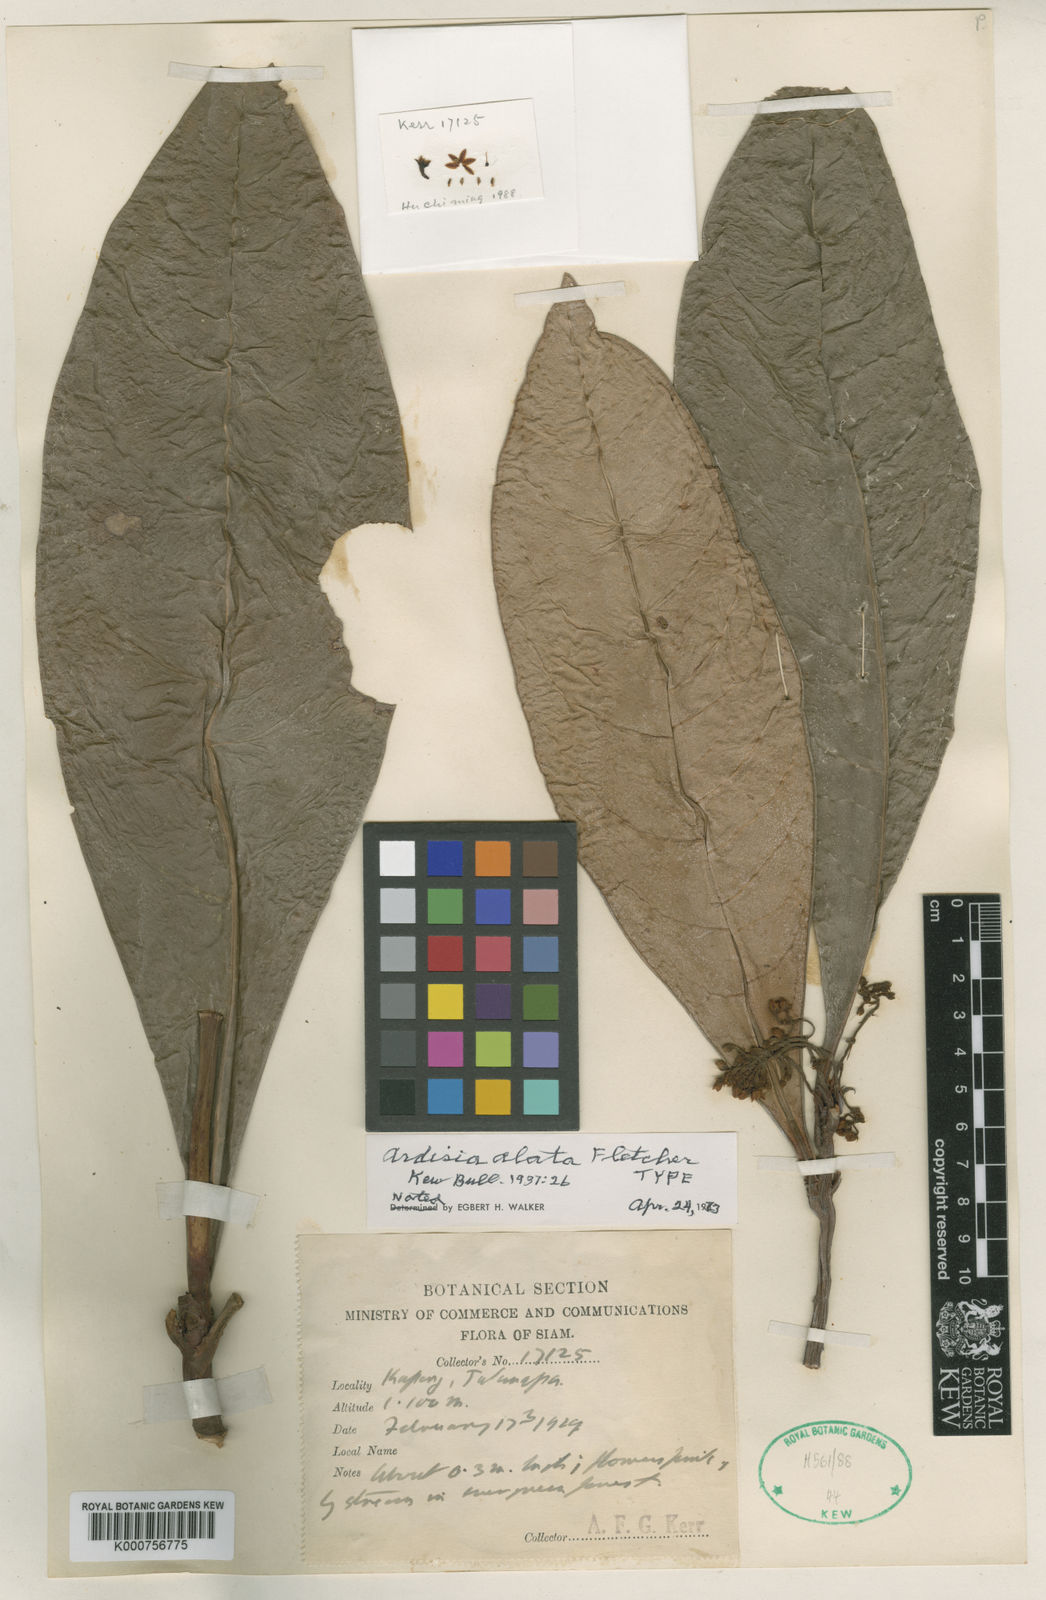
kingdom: Plantae
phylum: Tracheophyta
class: Magnoliopsida
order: Ericales
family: Primulaceae
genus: Ardisia
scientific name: Ardisia alata
